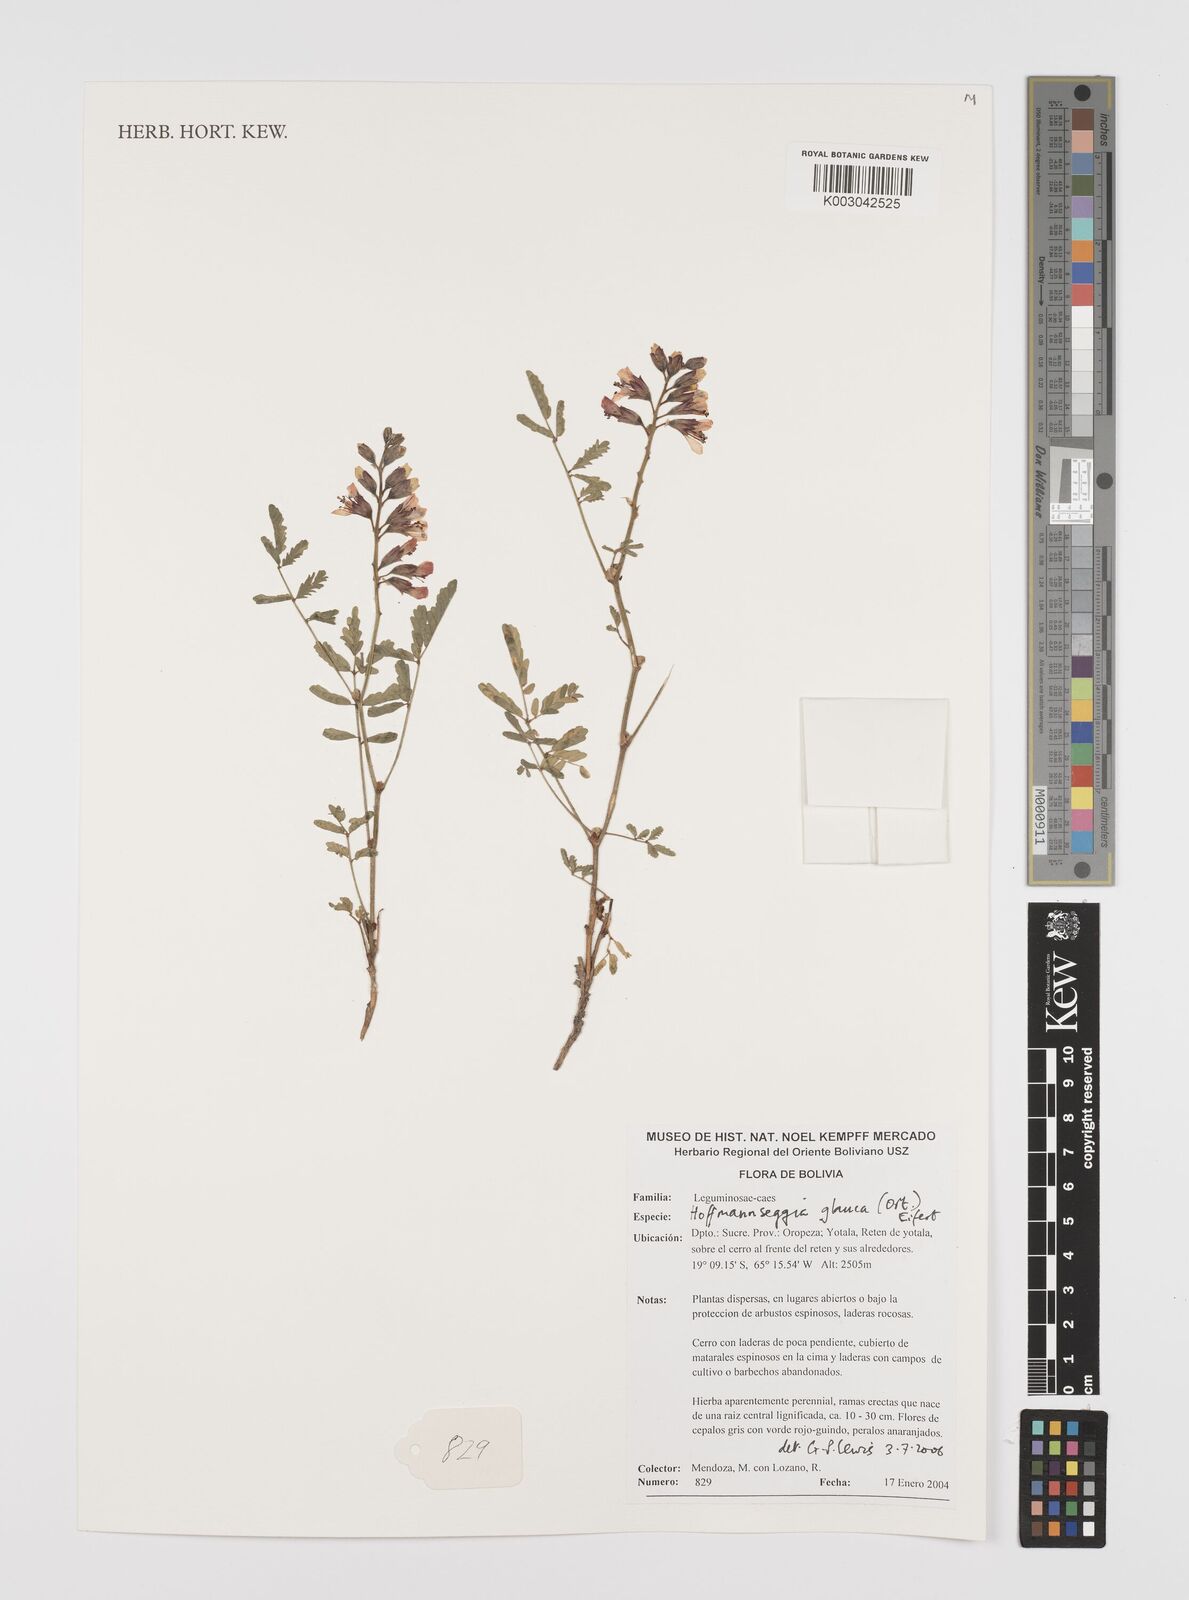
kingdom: Plantae
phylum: Tracheophyta
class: Magnoliopsida
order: Fabales
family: Fabaceae
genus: Hoffmannseggia
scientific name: Hoffmannseggia glauca
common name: Pignut
